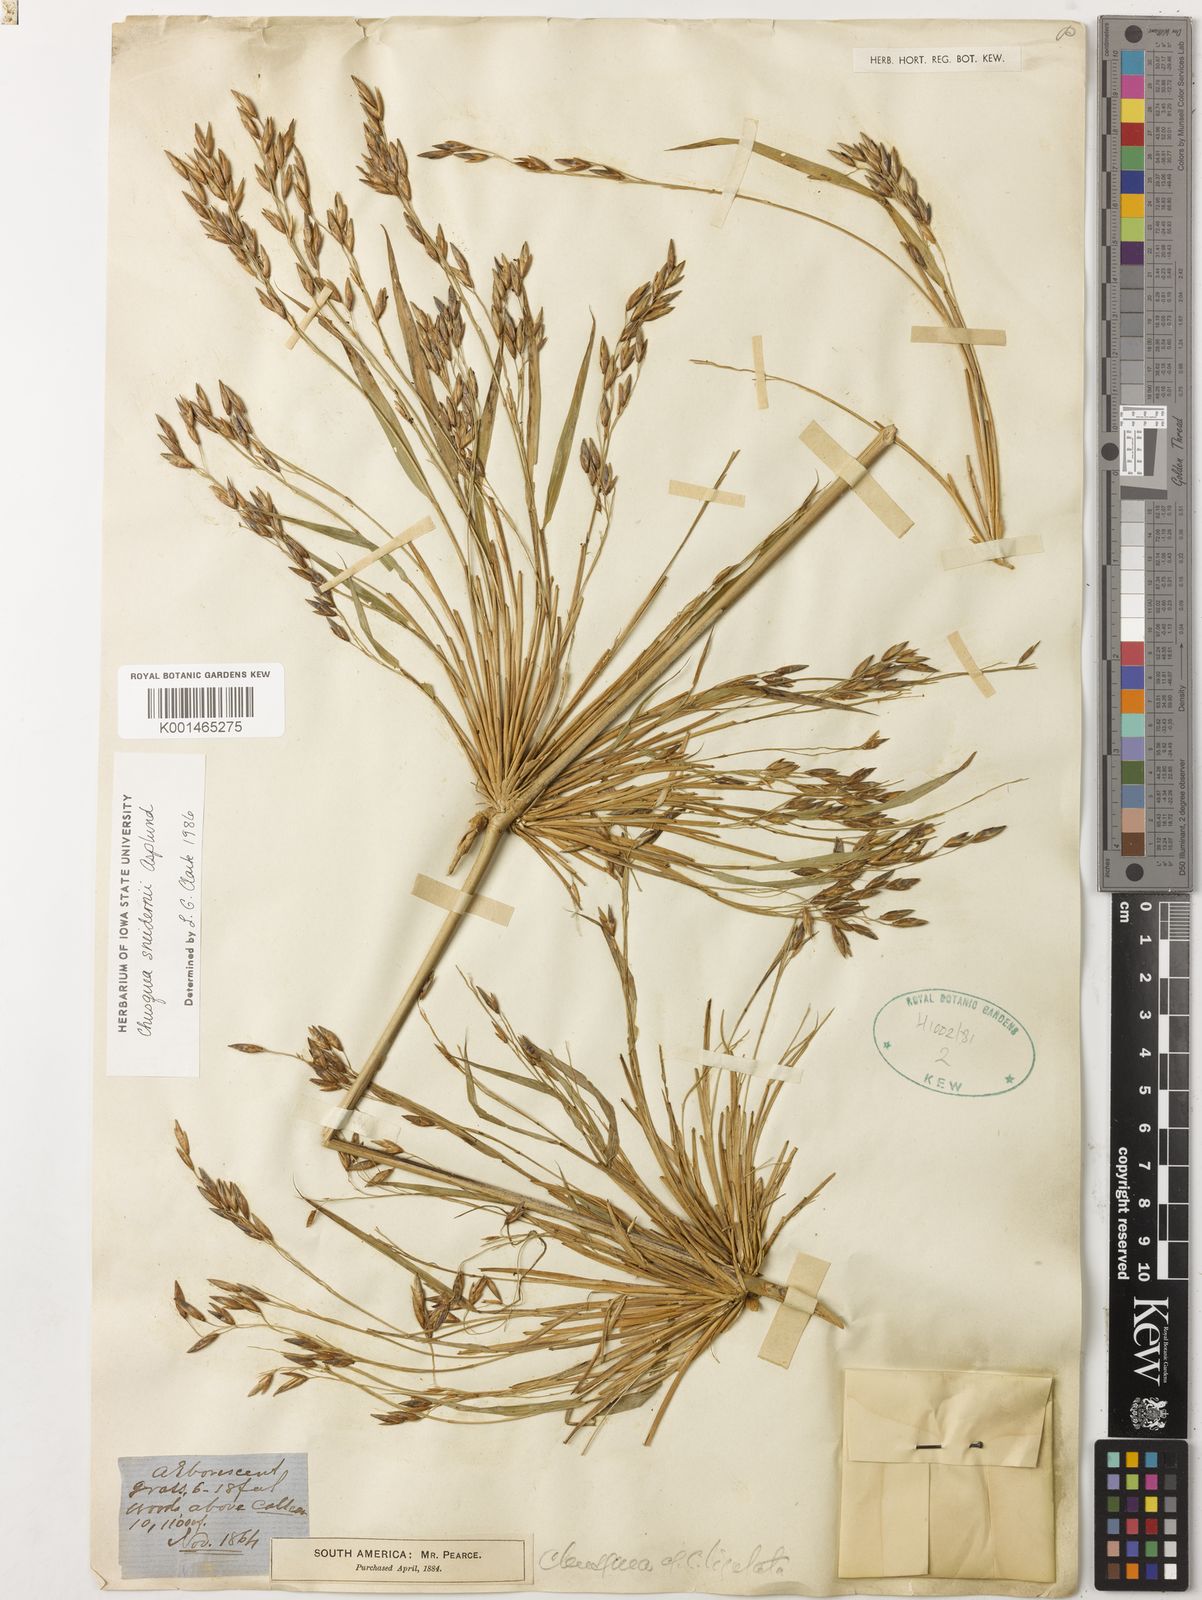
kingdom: Plantae
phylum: Tracheophyta
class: Liliopsida
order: Poales
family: Poaceae
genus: Chusquea
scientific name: Chusquea sneidernii
